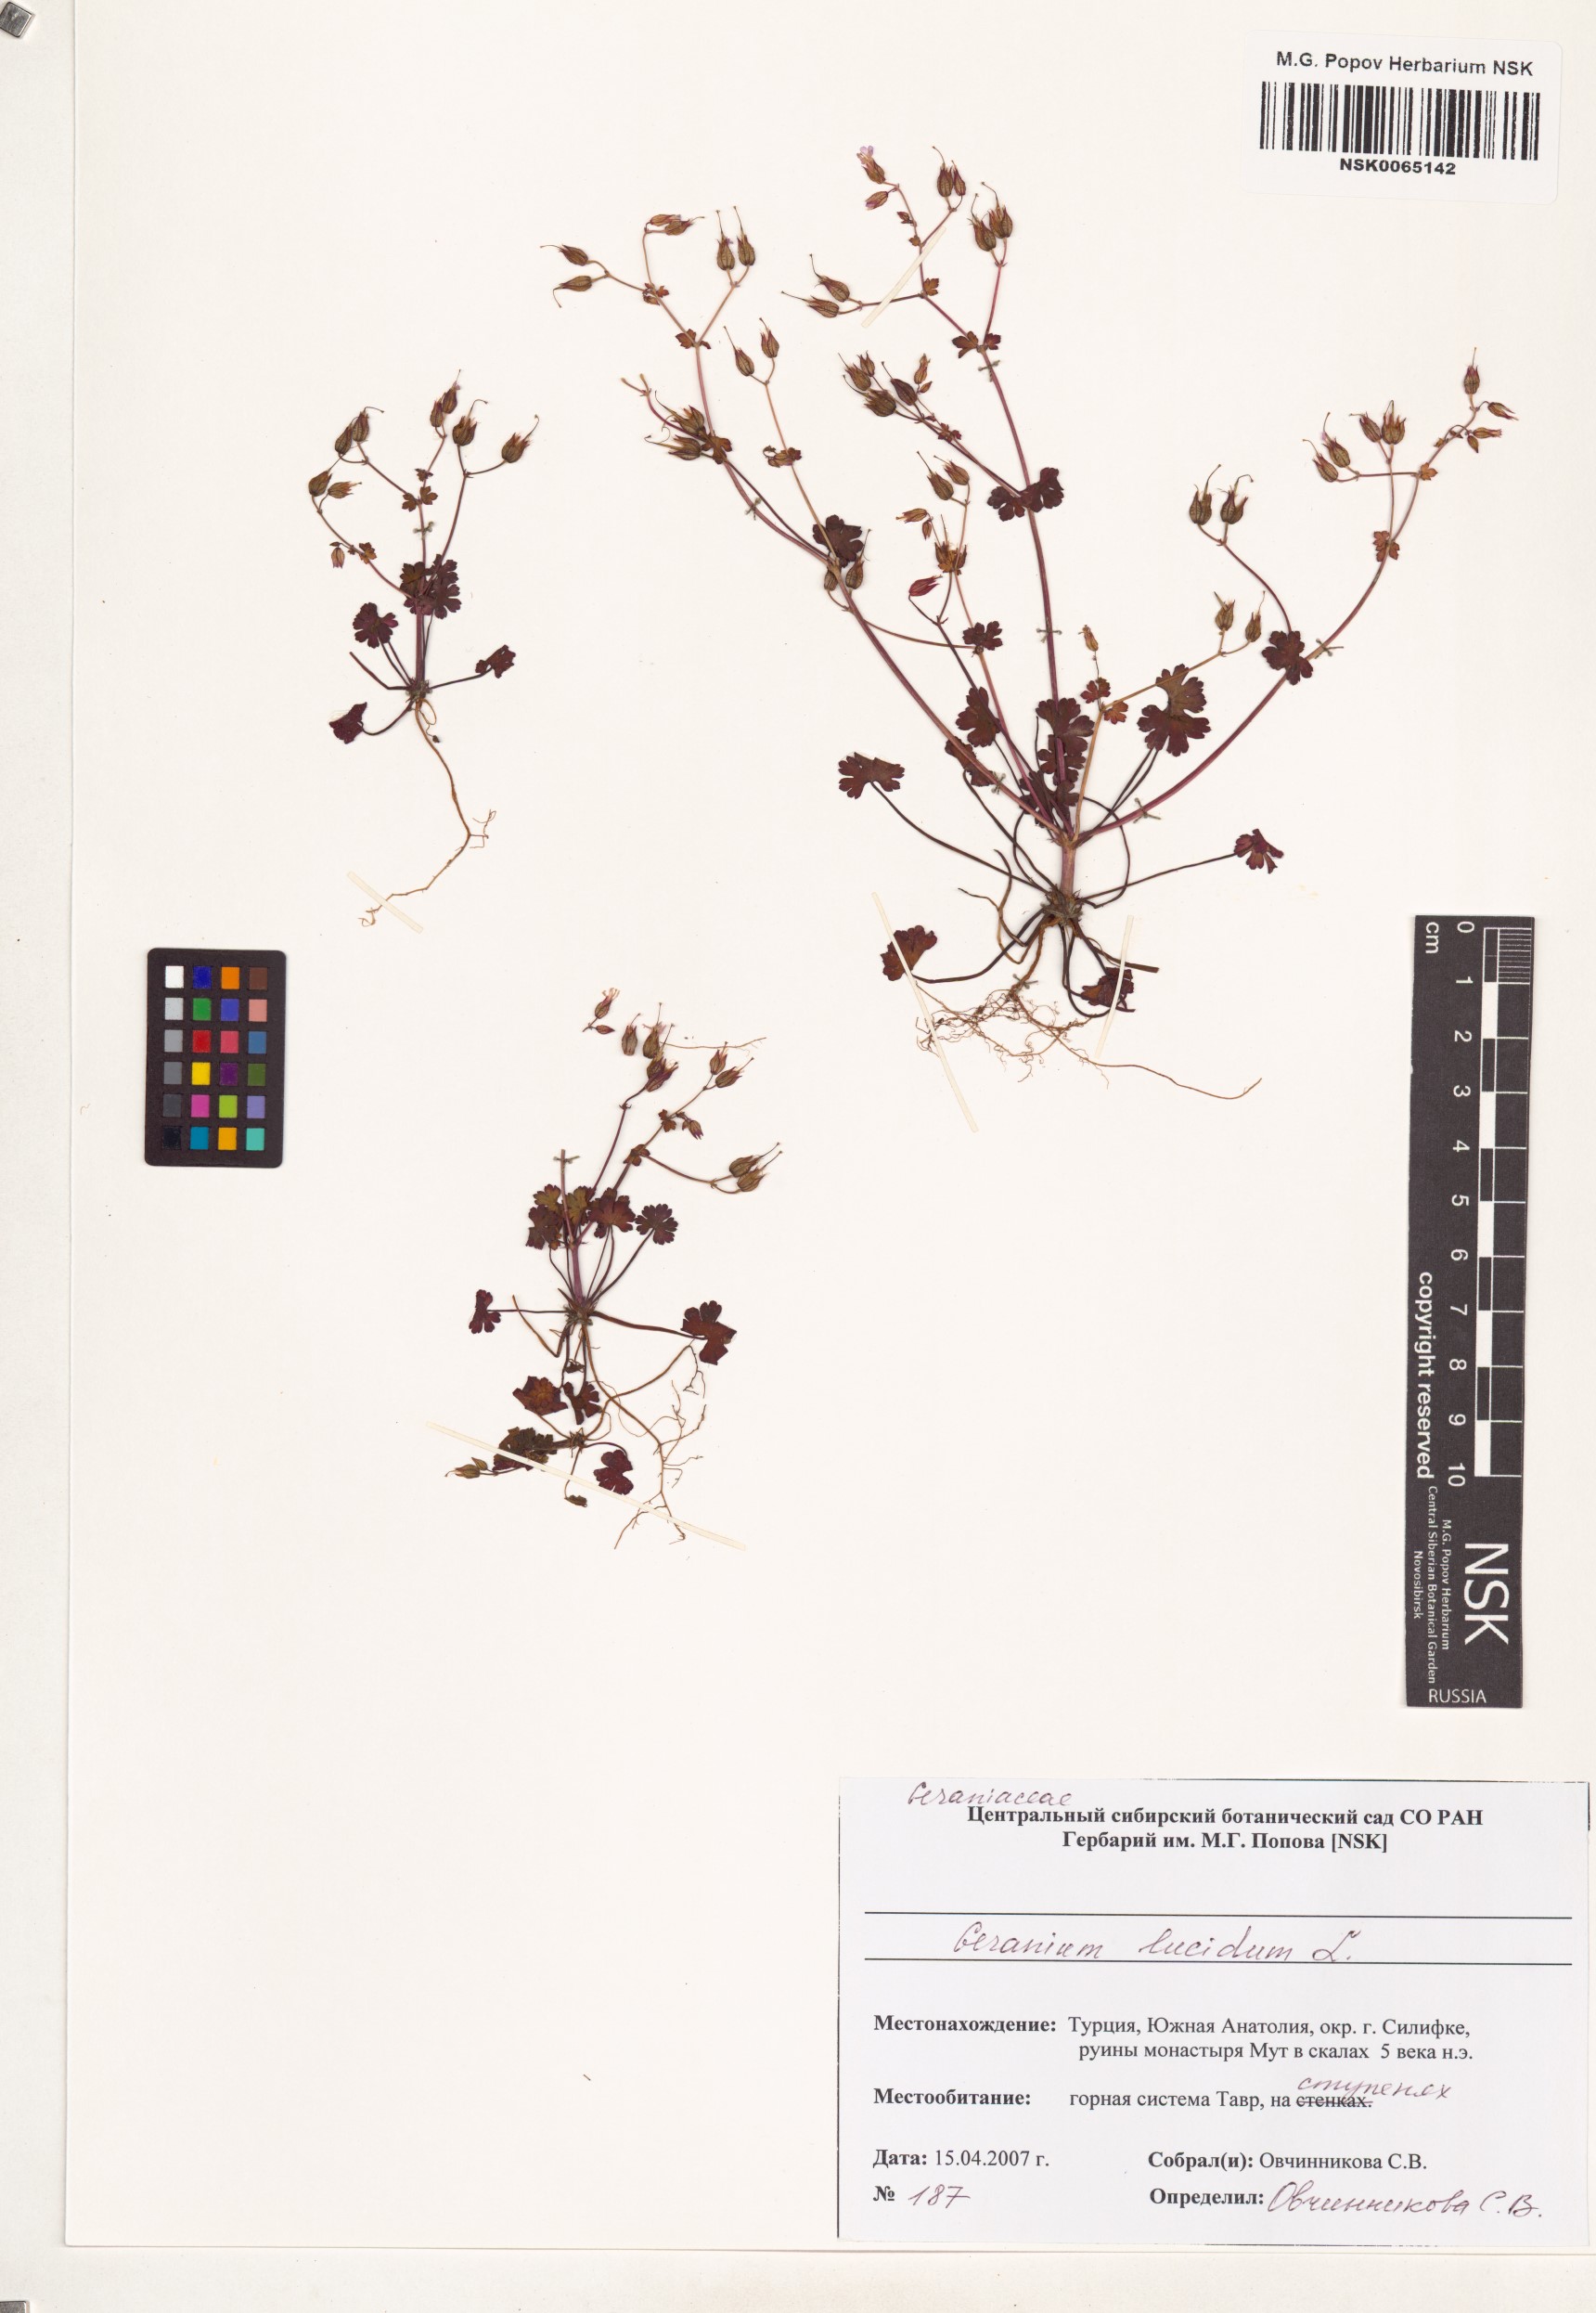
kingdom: Plantae
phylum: Tracheophyta
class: Magnoliopsida
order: Geraniales
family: Geraniaceae
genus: Geranium
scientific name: Geranium lucidum
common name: Shining crane's-bill
